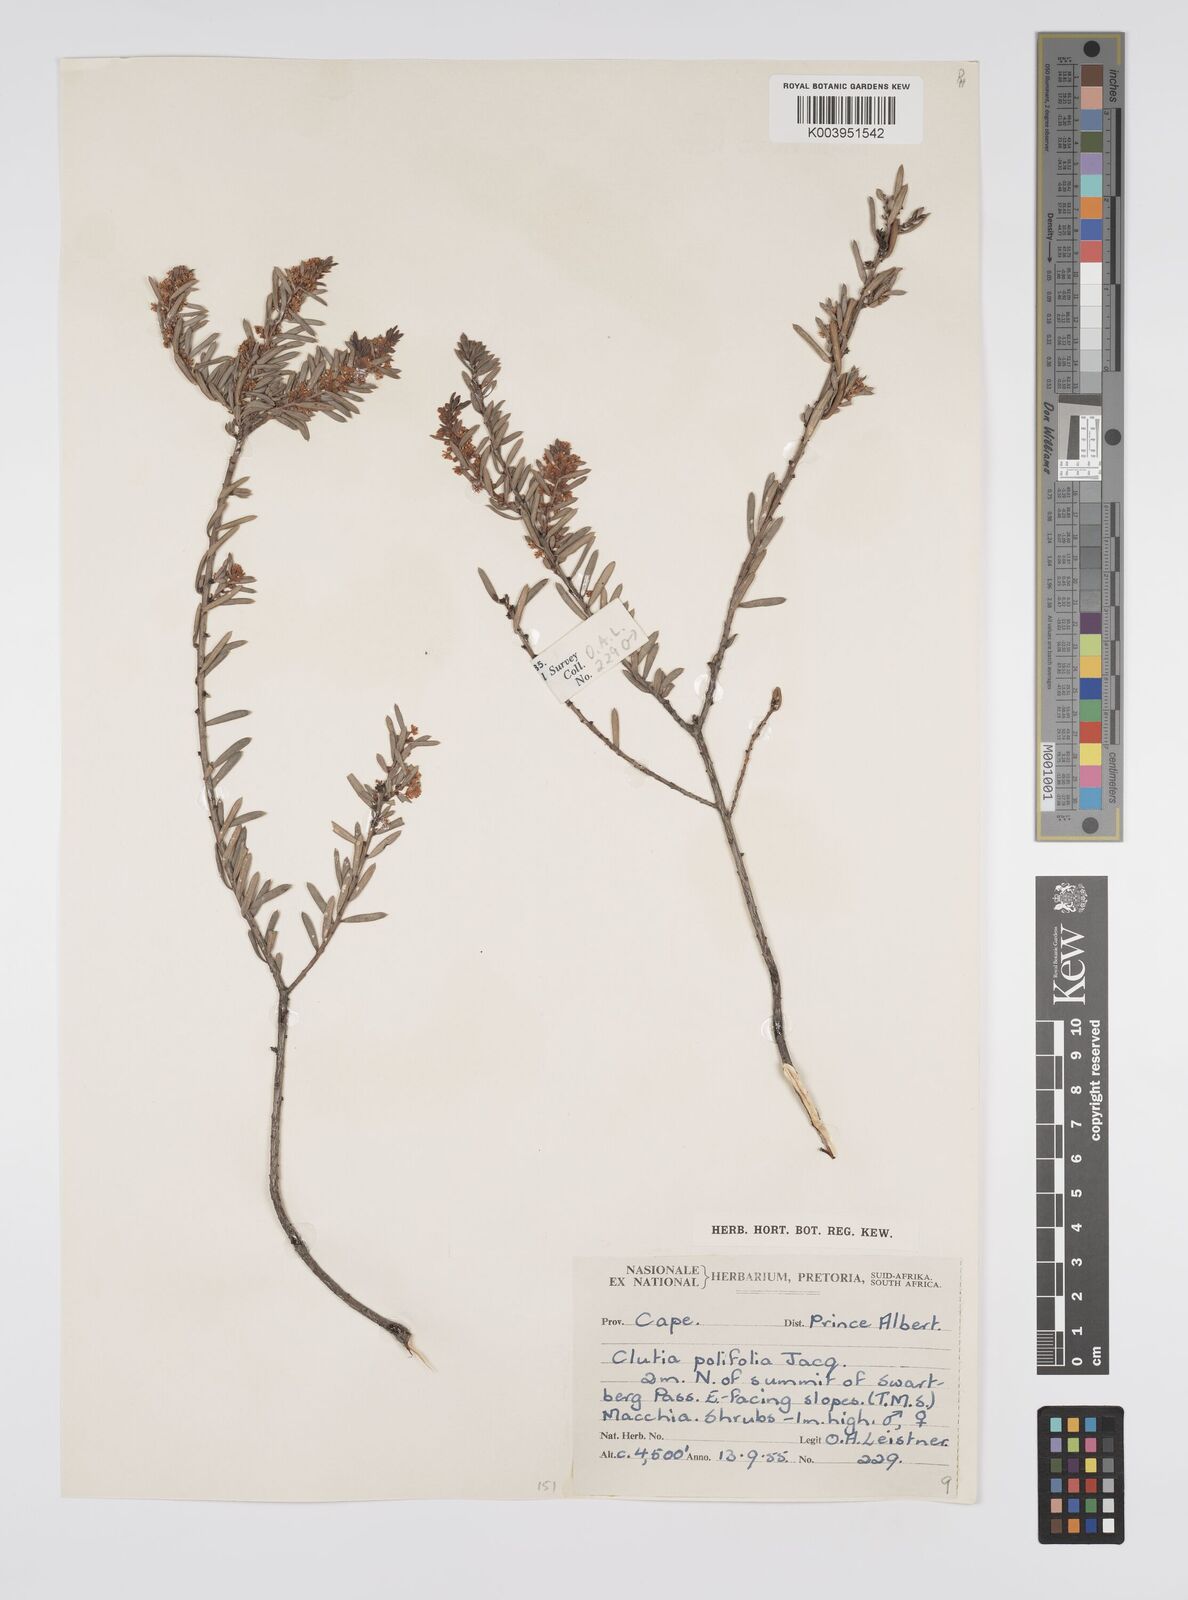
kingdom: Plantae
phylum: Tracheophyta
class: Magnoliopsida
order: Malpighiales
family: Peraceae
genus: Clutia
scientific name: Clutia
